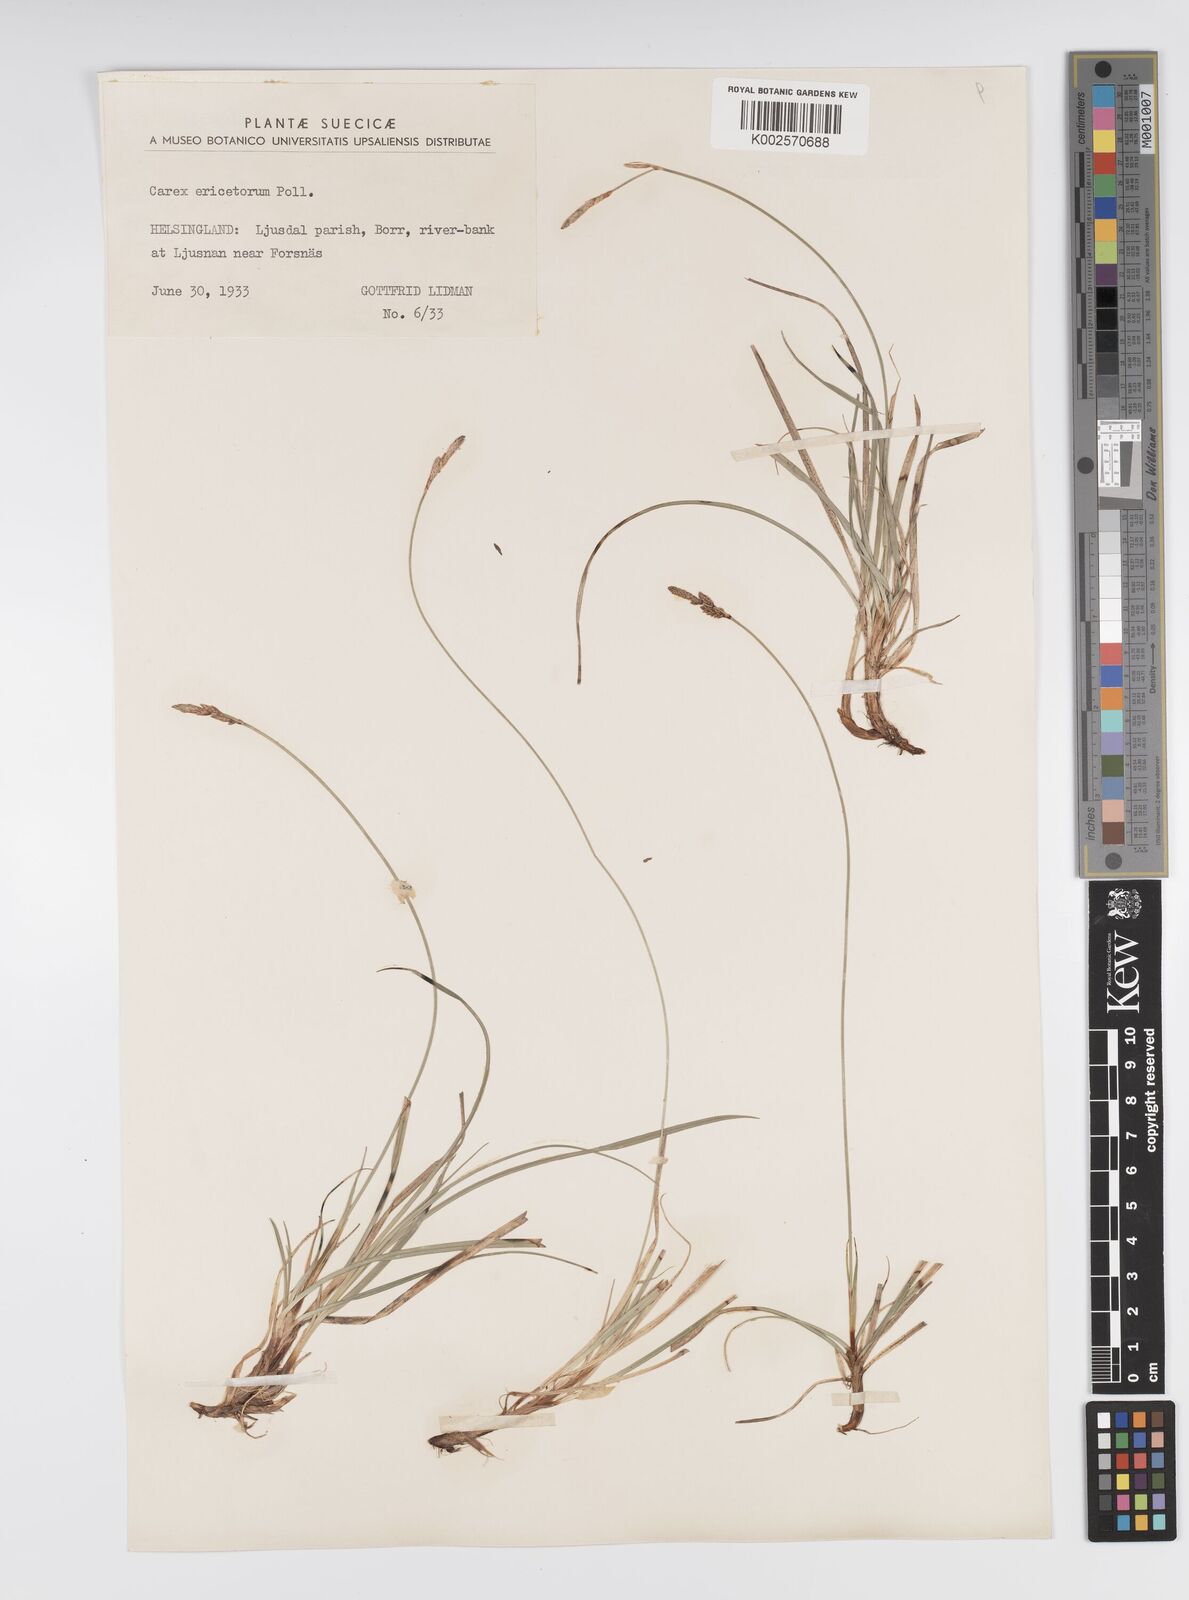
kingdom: Plantae
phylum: Tracheophyta
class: Liliopsida
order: Poales
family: Cyperaceae
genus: Carex
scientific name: Carex ericetorum
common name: Rare spring-sedge
